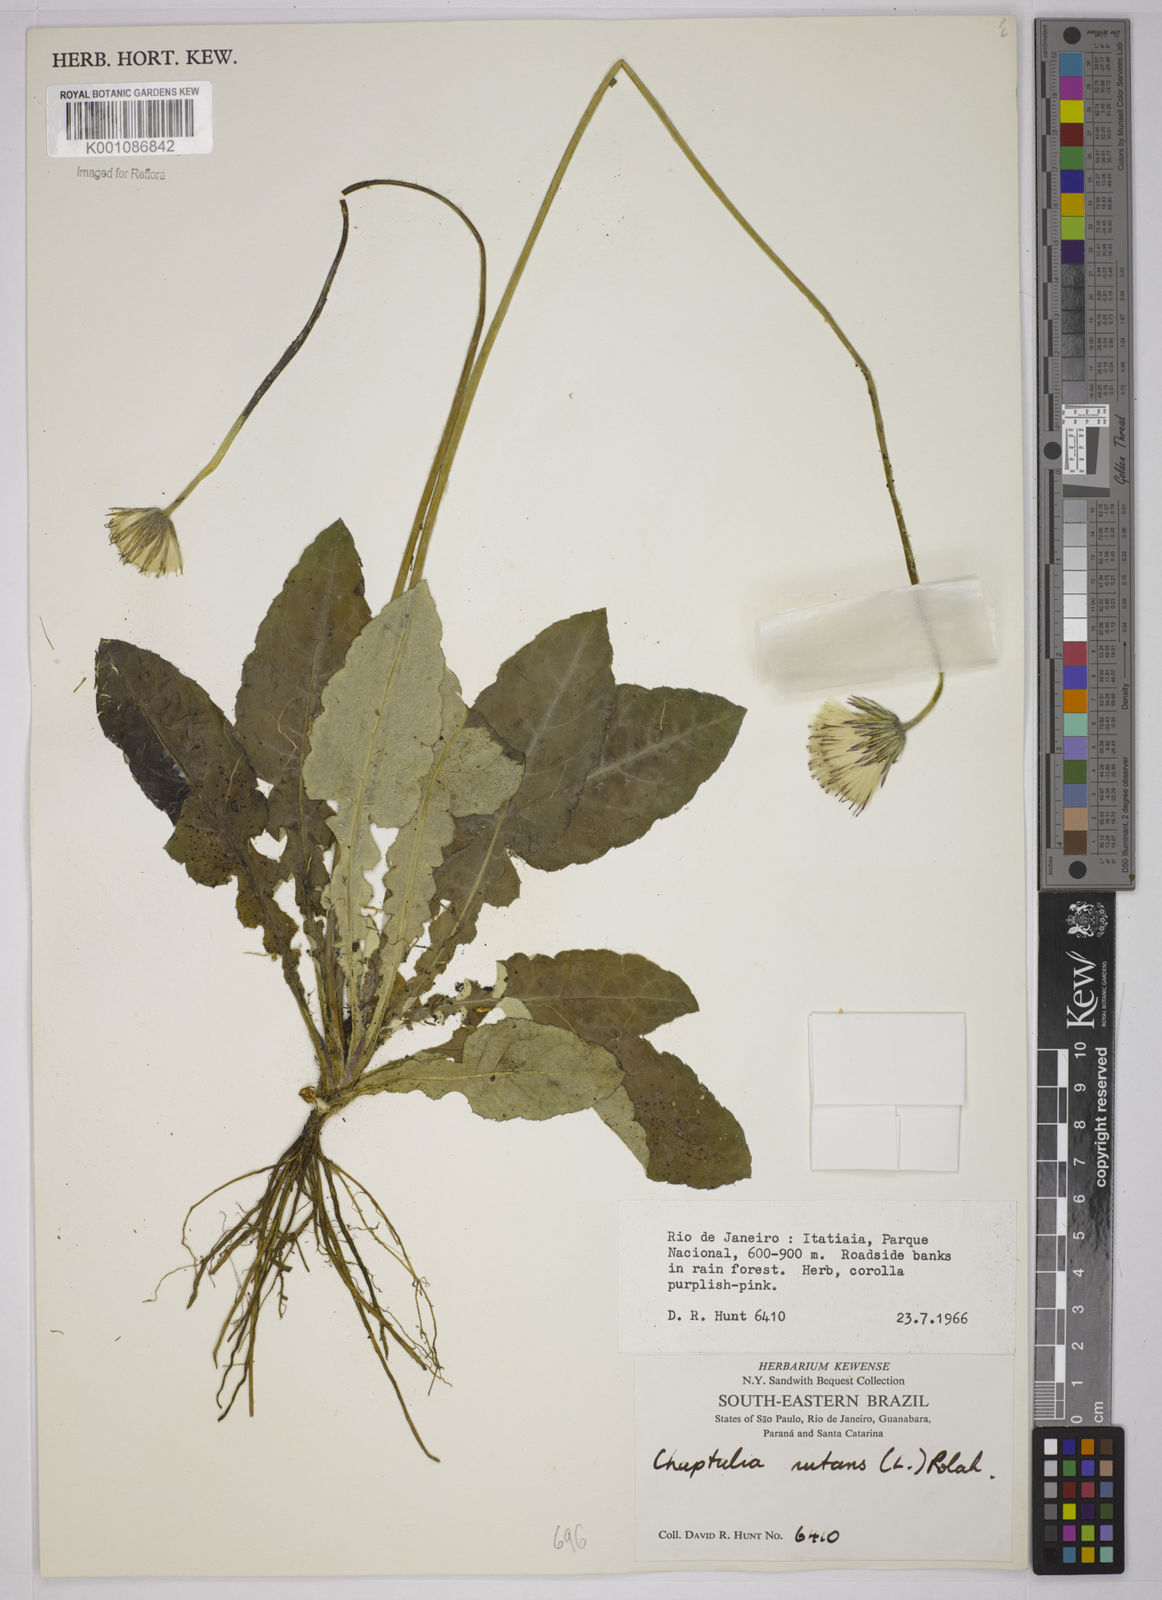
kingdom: Plantae
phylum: Tracheophyta
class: Magnoliopsida
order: Asterales
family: Asteraceae
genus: Chaptalia
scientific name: Chaptalia nutans
